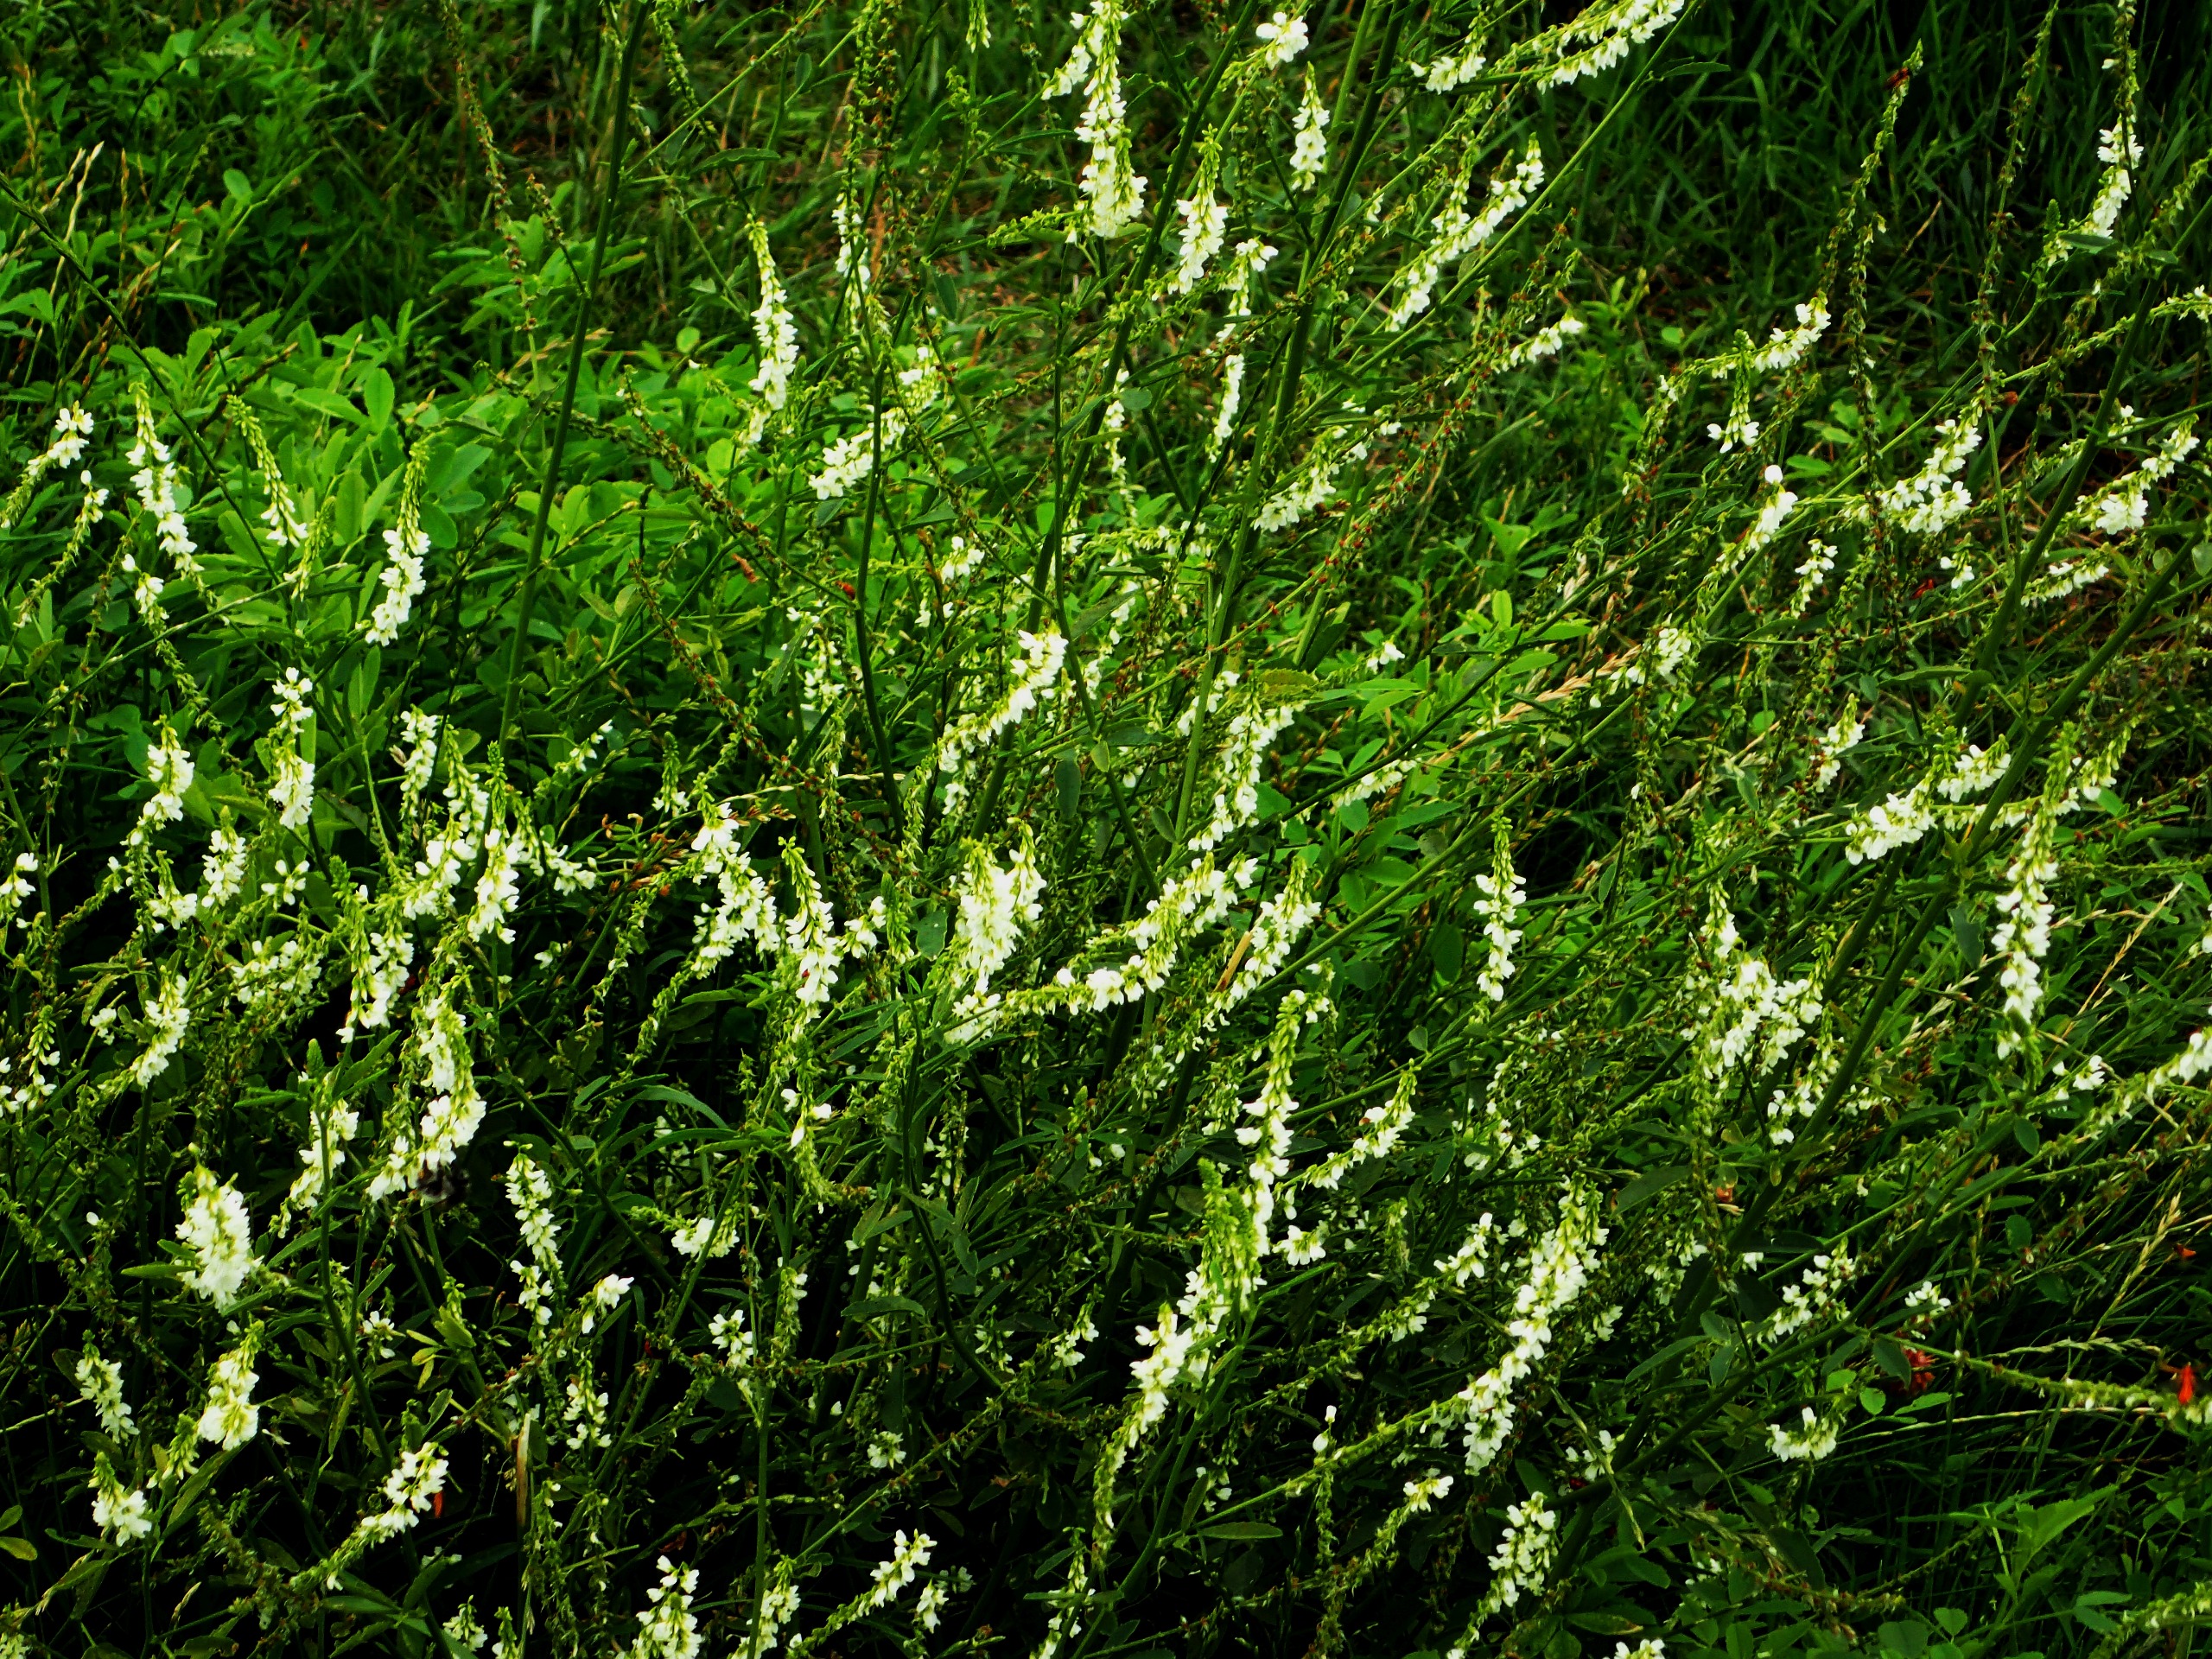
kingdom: Plantae
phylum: Tracheophyta
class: Magnoliopsida
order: Fabales
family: Fabaceae
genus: Melilotus
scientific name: Melilotus albus
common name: Hvid stenkløver
